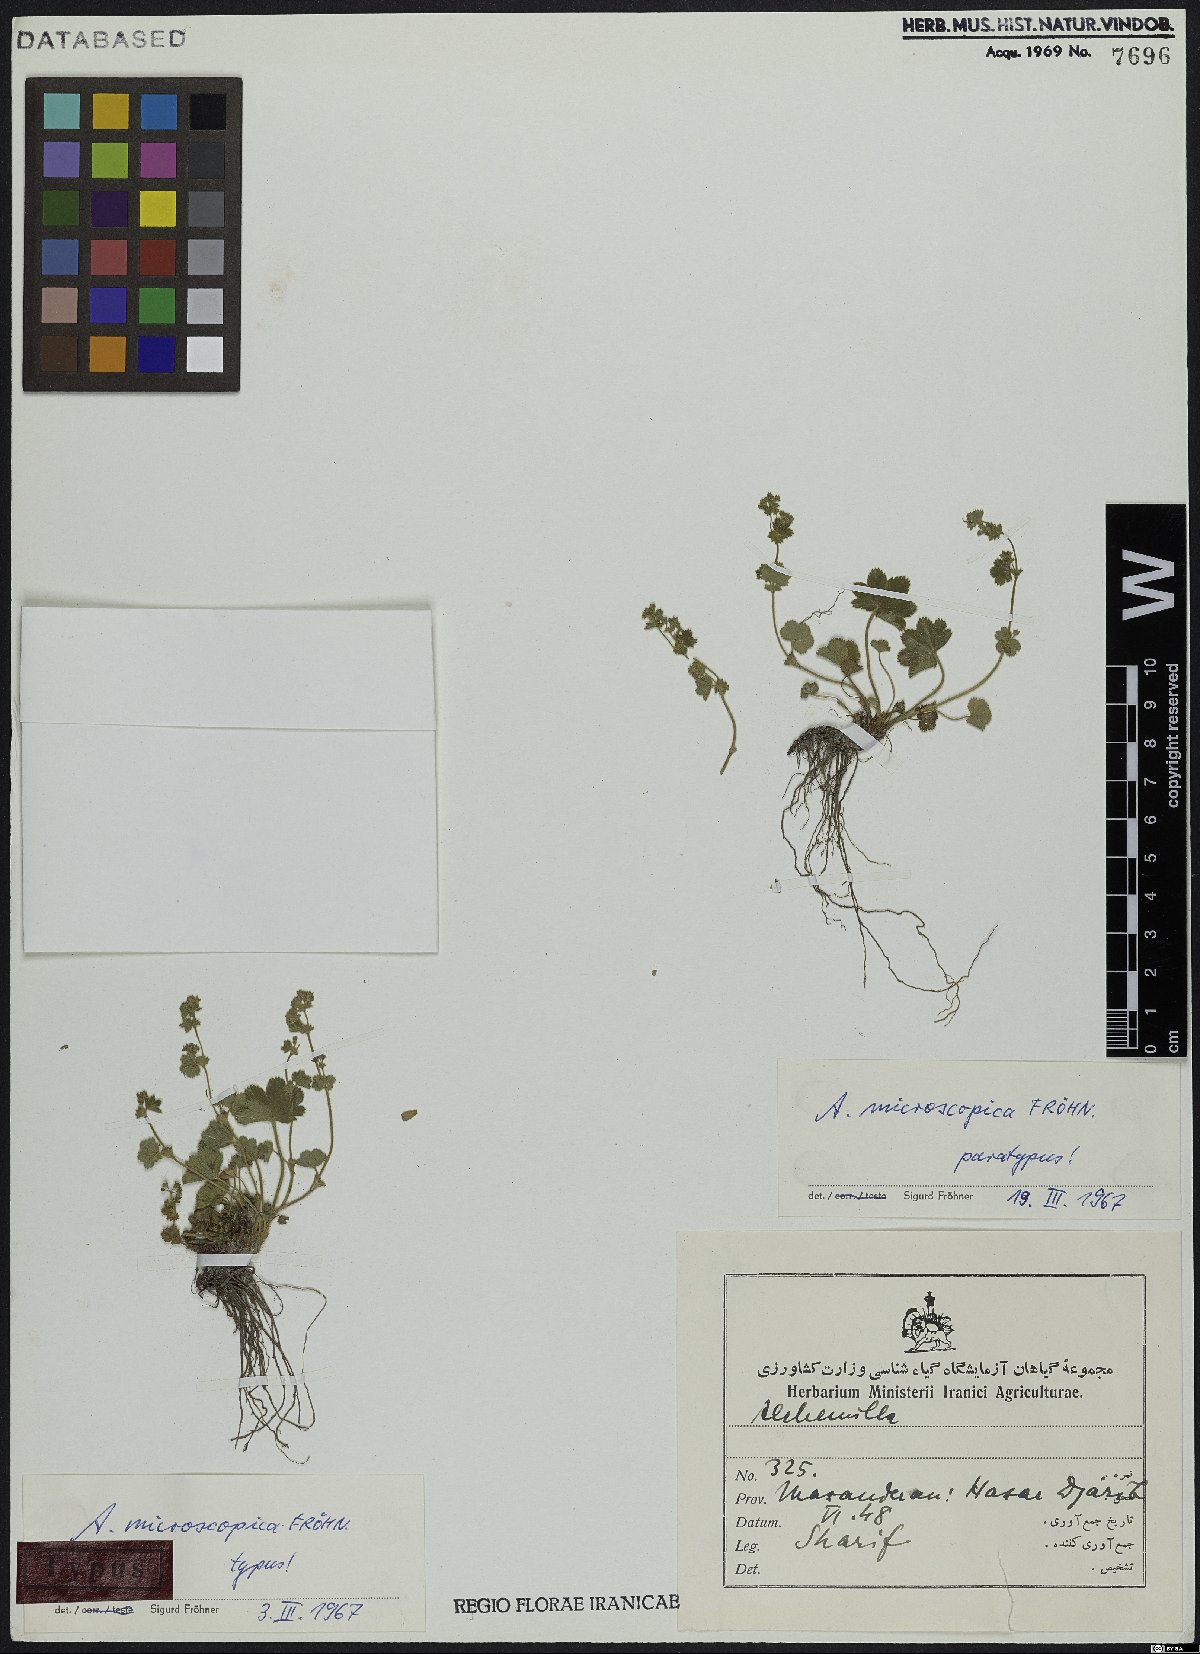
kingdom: Plantae
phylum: Tracheophyta
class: Magnoliopsida
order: Rosales
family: Rosaceae
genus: Alchemilla
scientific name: Alchemilla microscopica
